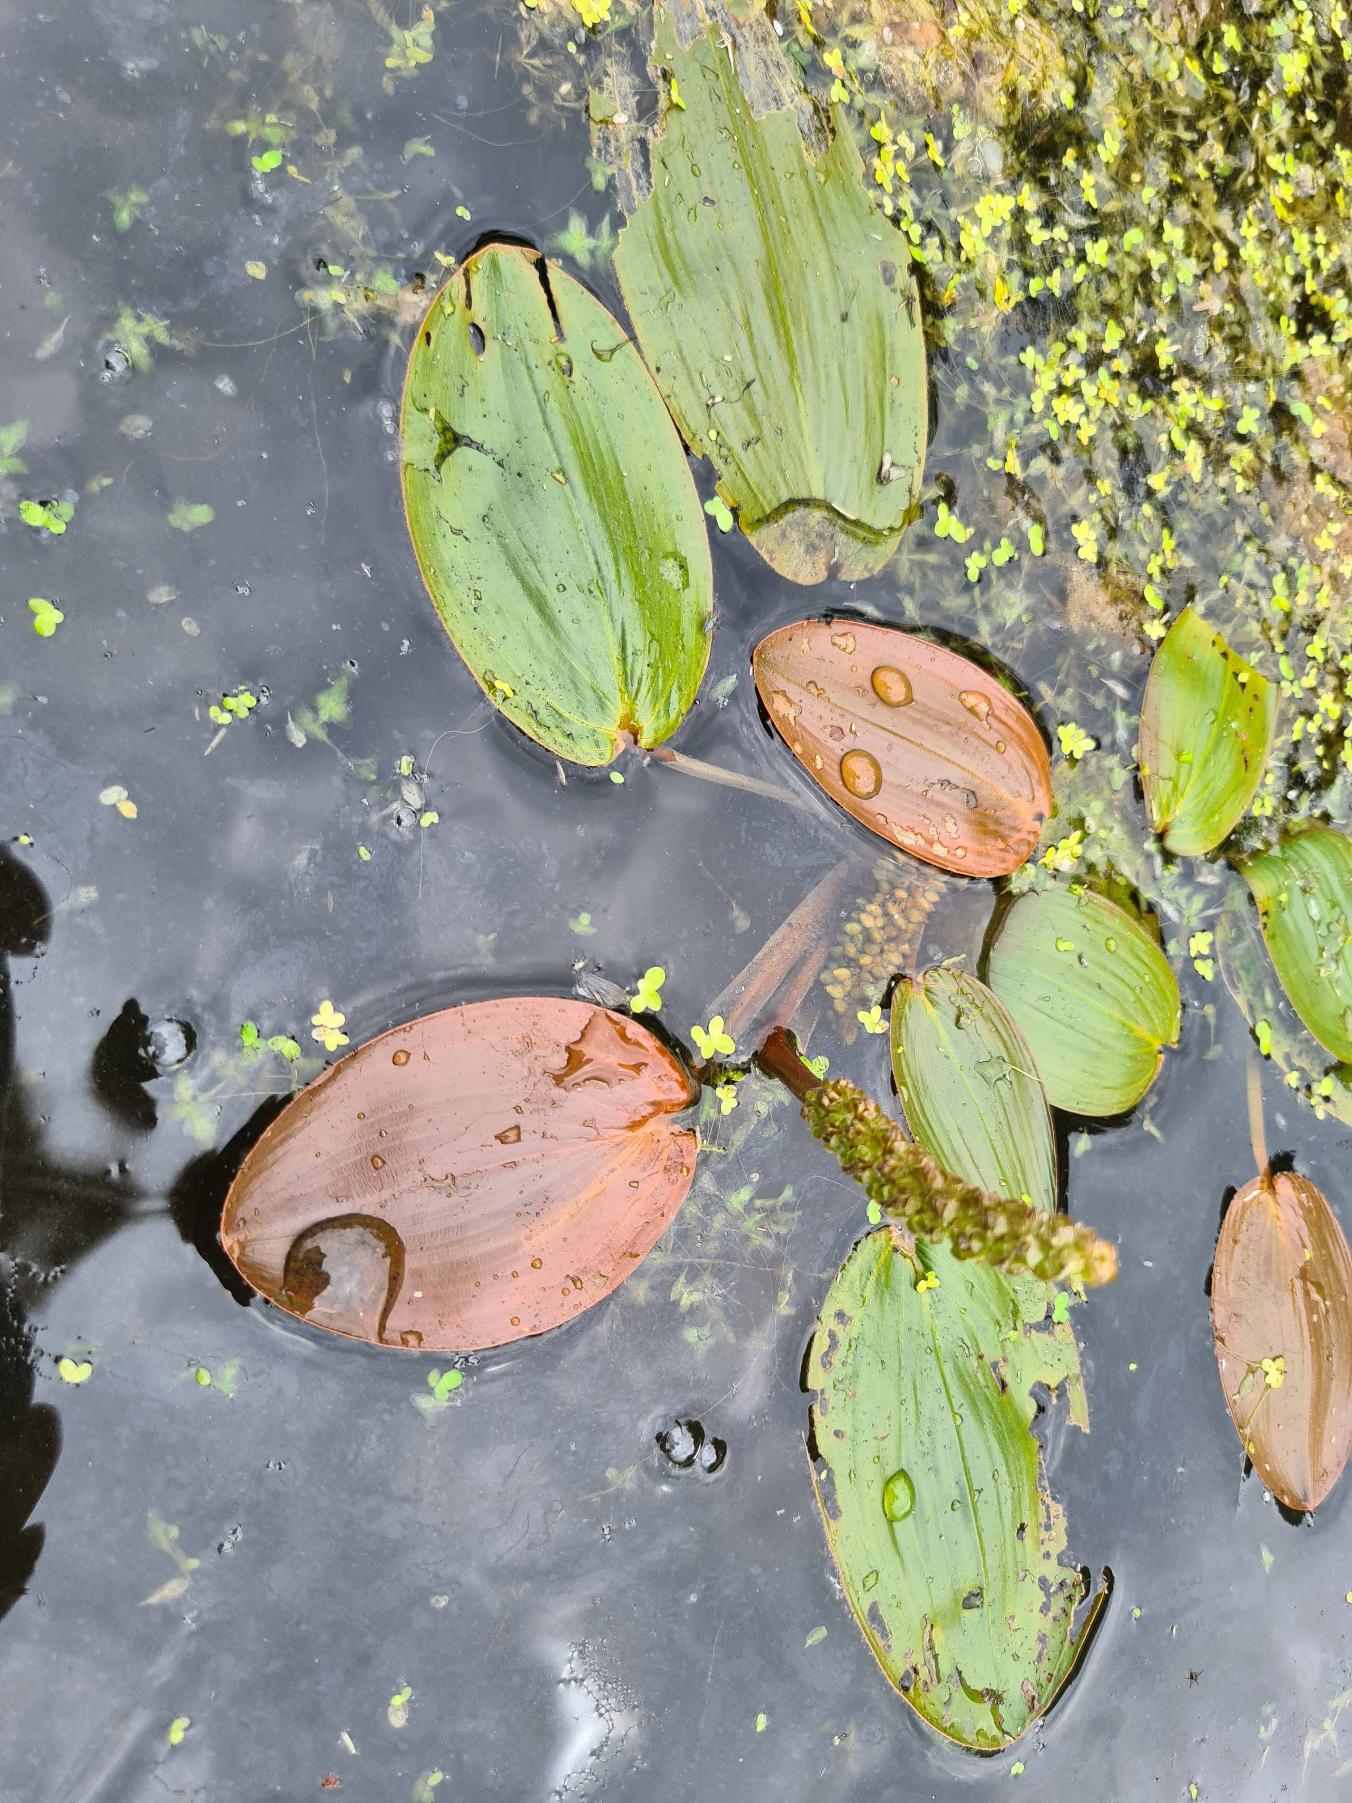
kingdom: Plantae
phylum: Tracheophyta
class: Liliopsida
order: Alismatales
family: Potamogetonaceae
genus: Potamogeton
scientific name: Potamogeton natans
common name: Svømmende vandaks
